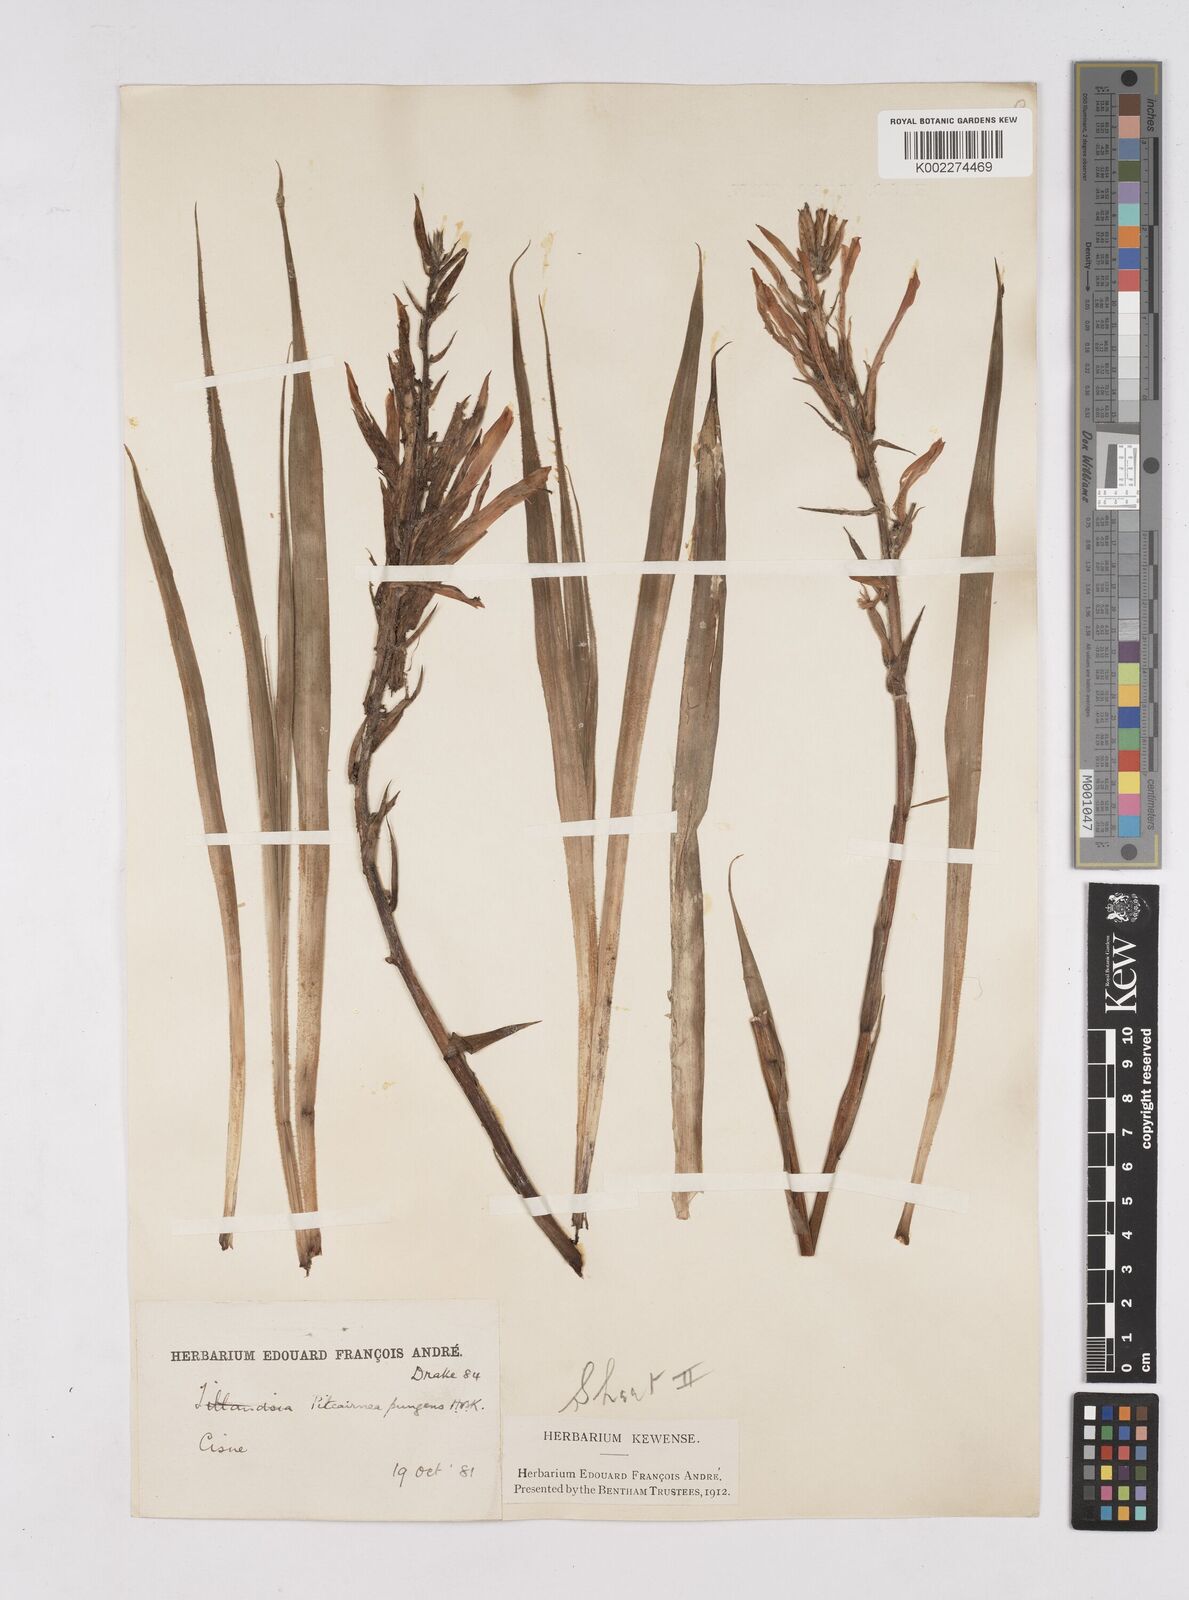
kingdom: Plantae
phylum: Tracheophyta
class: Liliopsida
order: Poales
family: Bromeliaceae
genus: Pitcairnia
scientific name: Pitcairnia pungens
